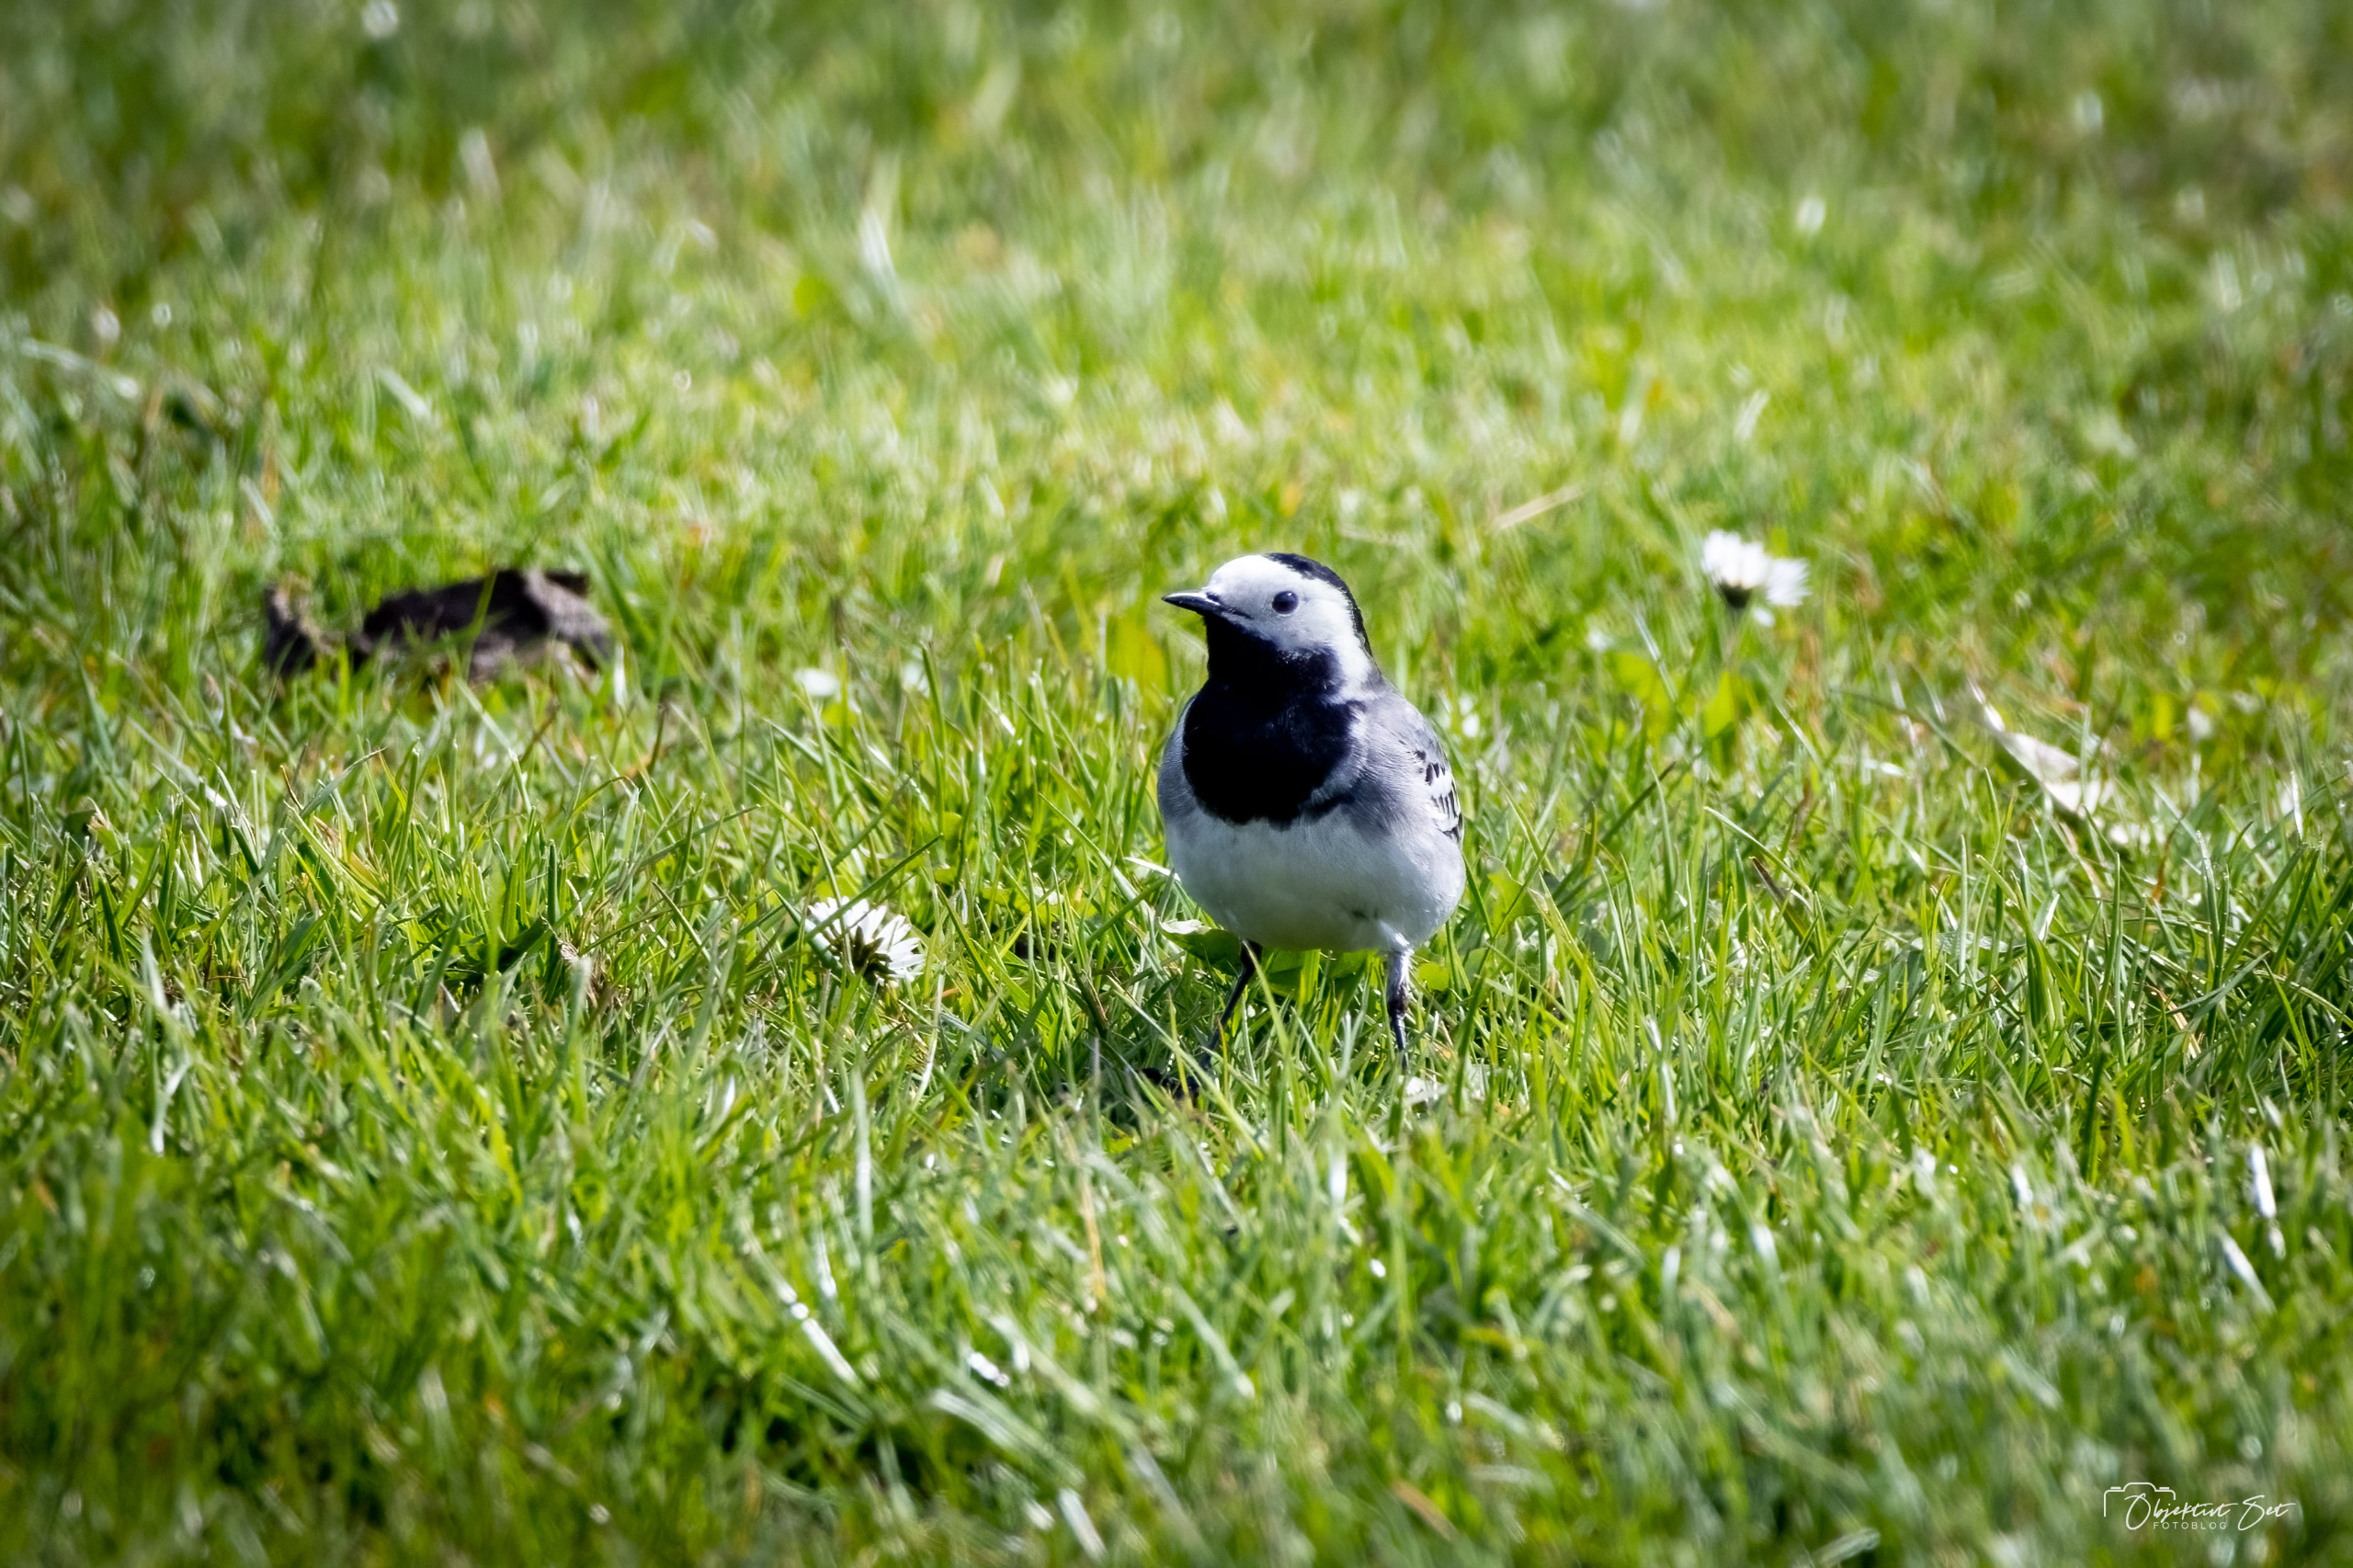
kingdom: Animalia
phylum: Chordata
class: Aves
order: Passeriformes
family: Motacillidae
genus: Motacilla
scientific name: Motacilla alba
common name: Hvid vipstjert
